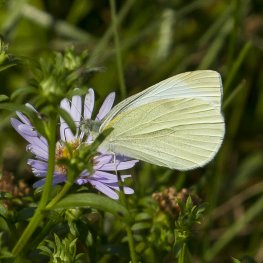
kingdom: Animalia
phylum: Arthropoda
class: Insecta
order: Lepidoptera
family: Pieridae
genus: Pieris
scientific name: Pieris rapae
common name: Cabbage White
